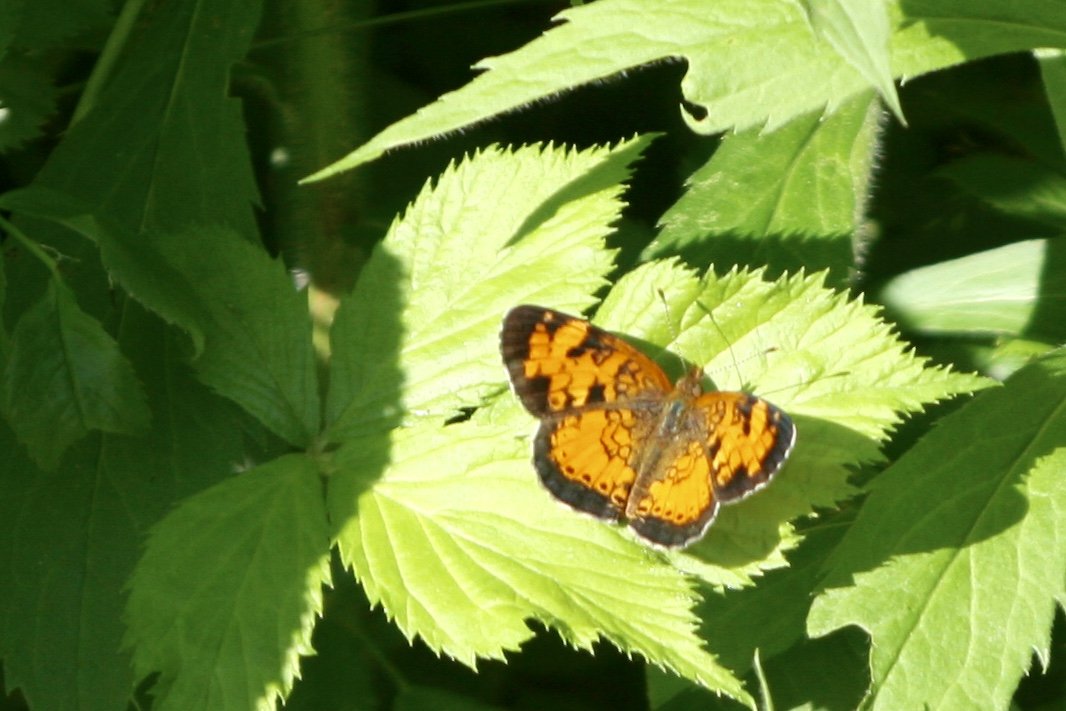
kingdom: Animalia
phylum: Arthropoda
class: Insecta
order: Lepidoptera
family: Nymphalidae
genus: Phyciodes
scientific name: Phyciodes tharos
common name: Northern Crescent
